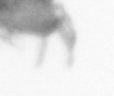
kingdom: Animalia
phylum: Annelida
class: Polychaeta
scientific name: Polychaeta
